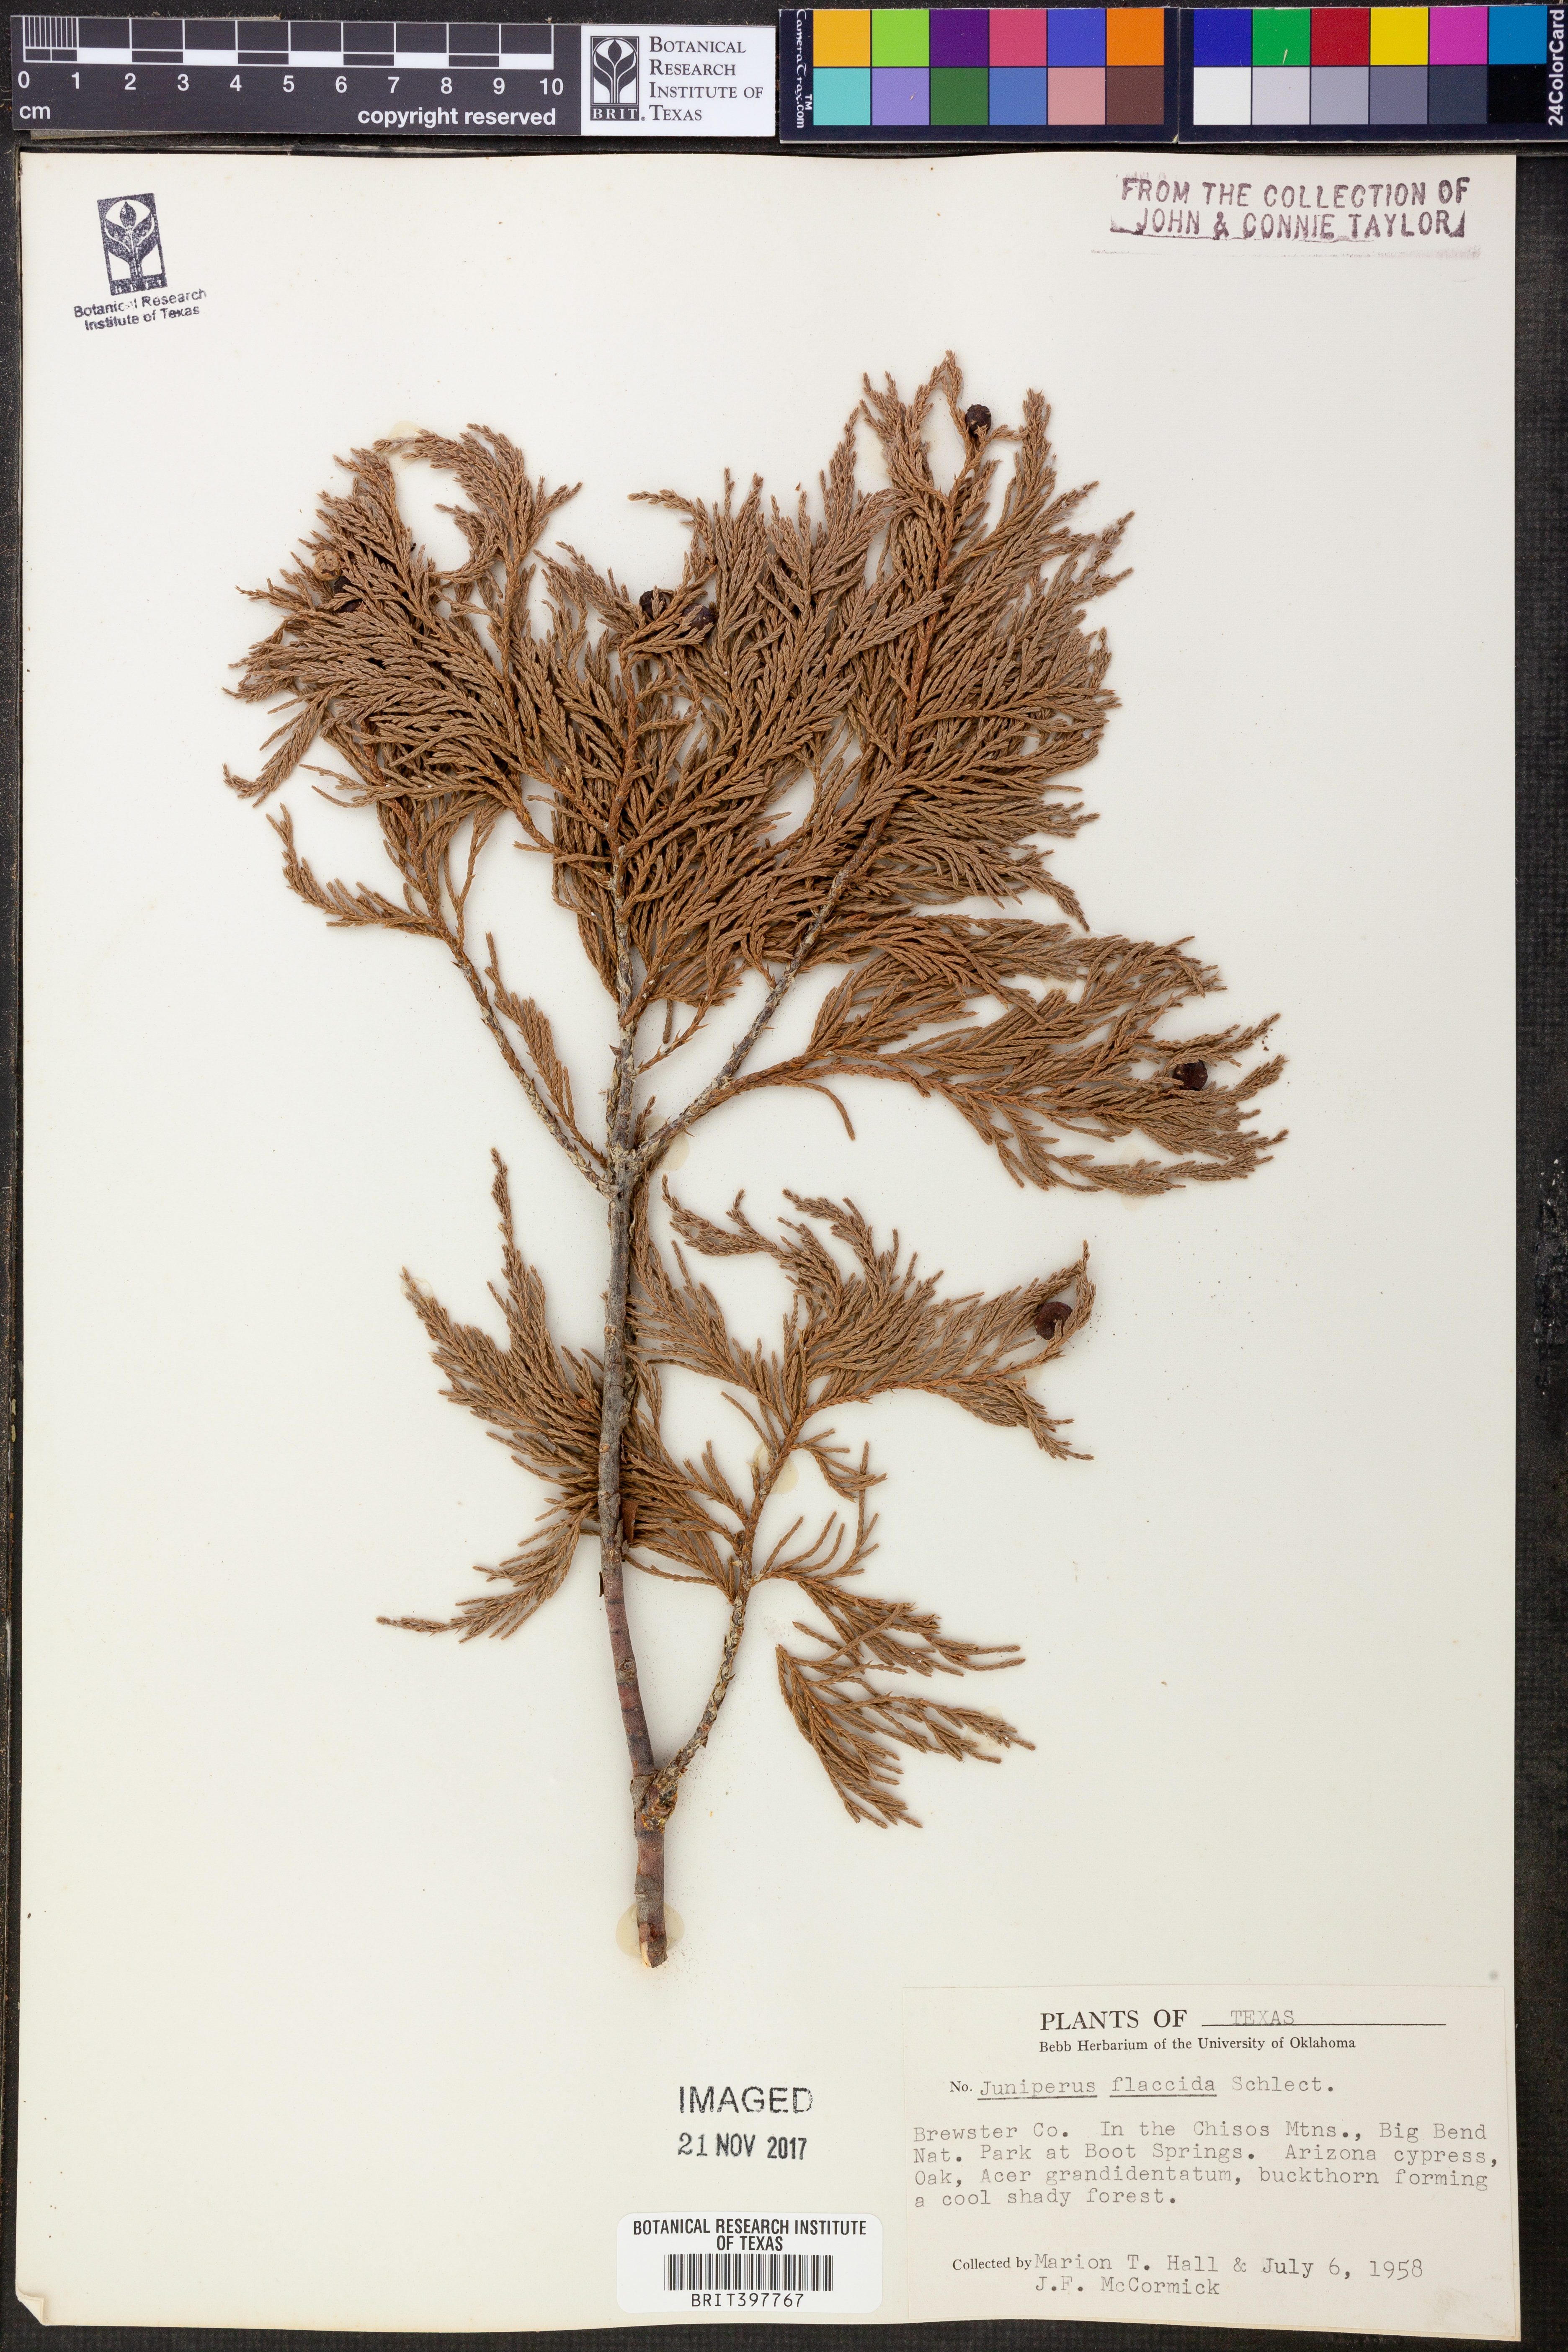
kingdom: Plantae
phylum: Tracheophyta
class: Pinopsida
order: Pinales
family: Cupressaceae
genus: Juniperus
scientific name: Juniperus flaccida
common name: Drooping juniper
